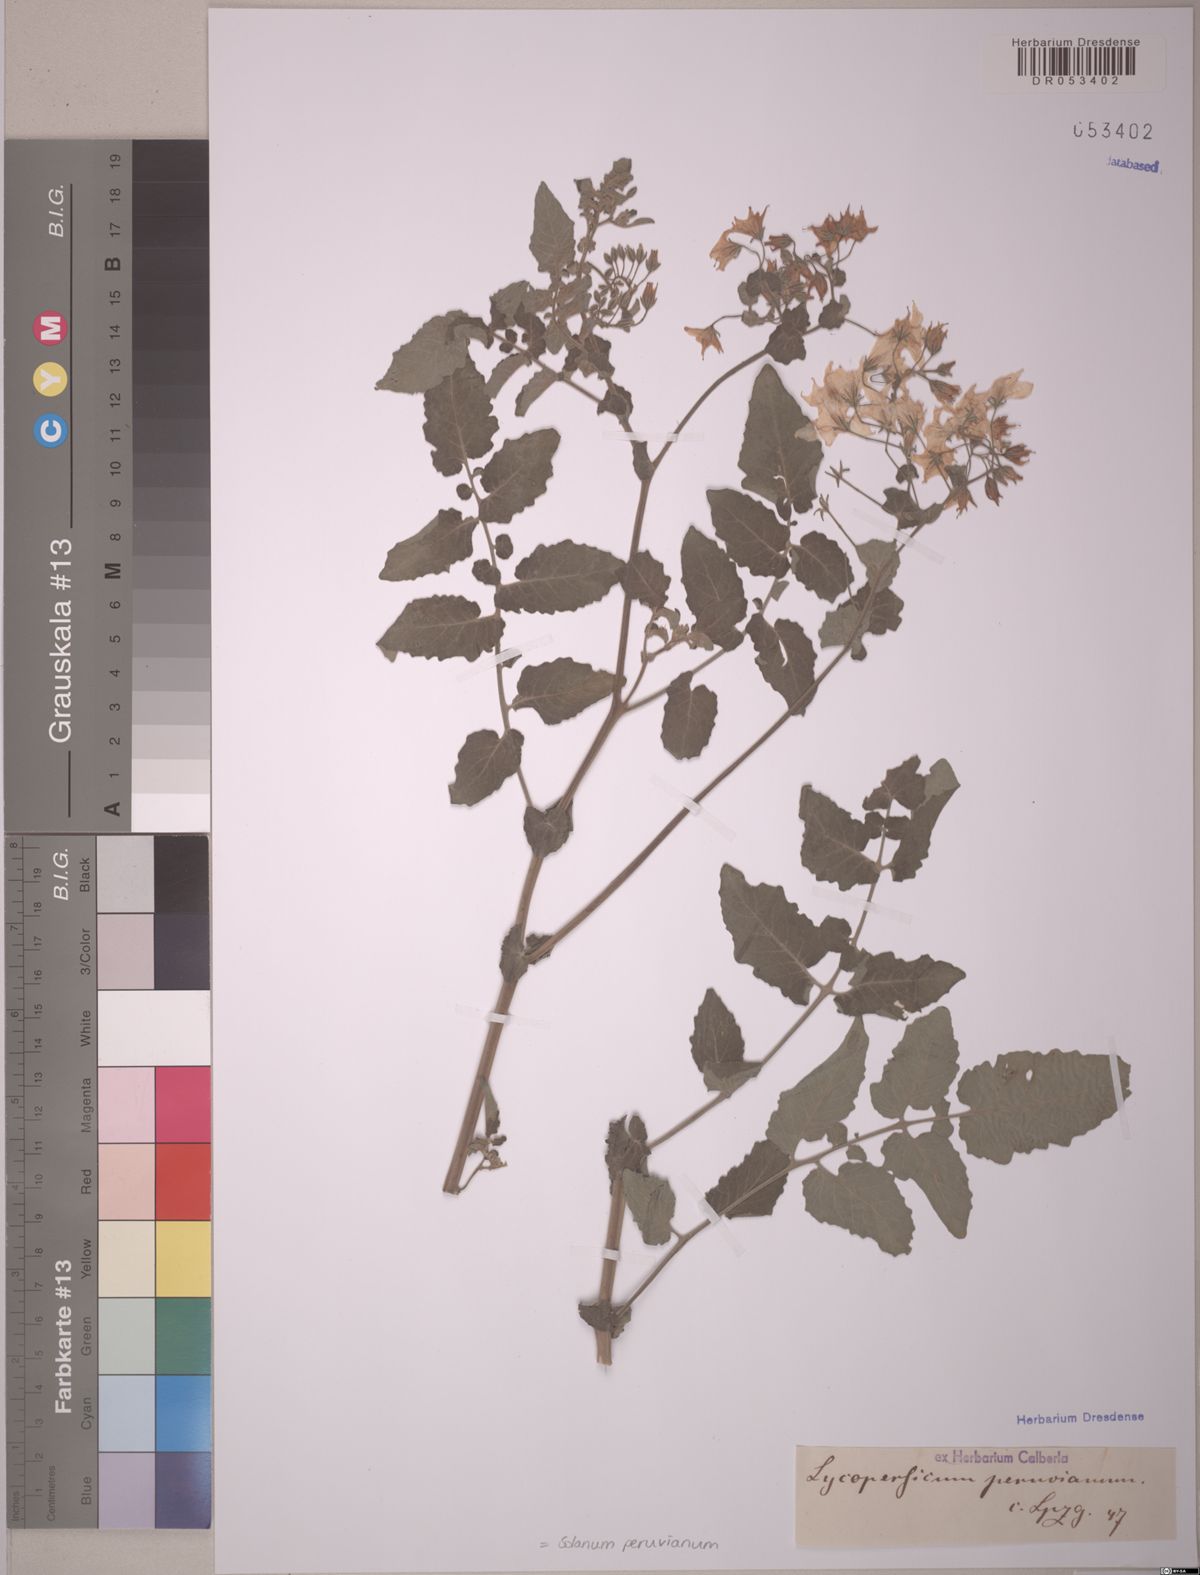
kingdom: Plantae
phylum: Tracheophyta
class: Magnoliopsida
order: Solanales
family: Solanaceae
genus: Solanum
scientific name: Solanum peruvianum
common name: Peruvian nightshade
